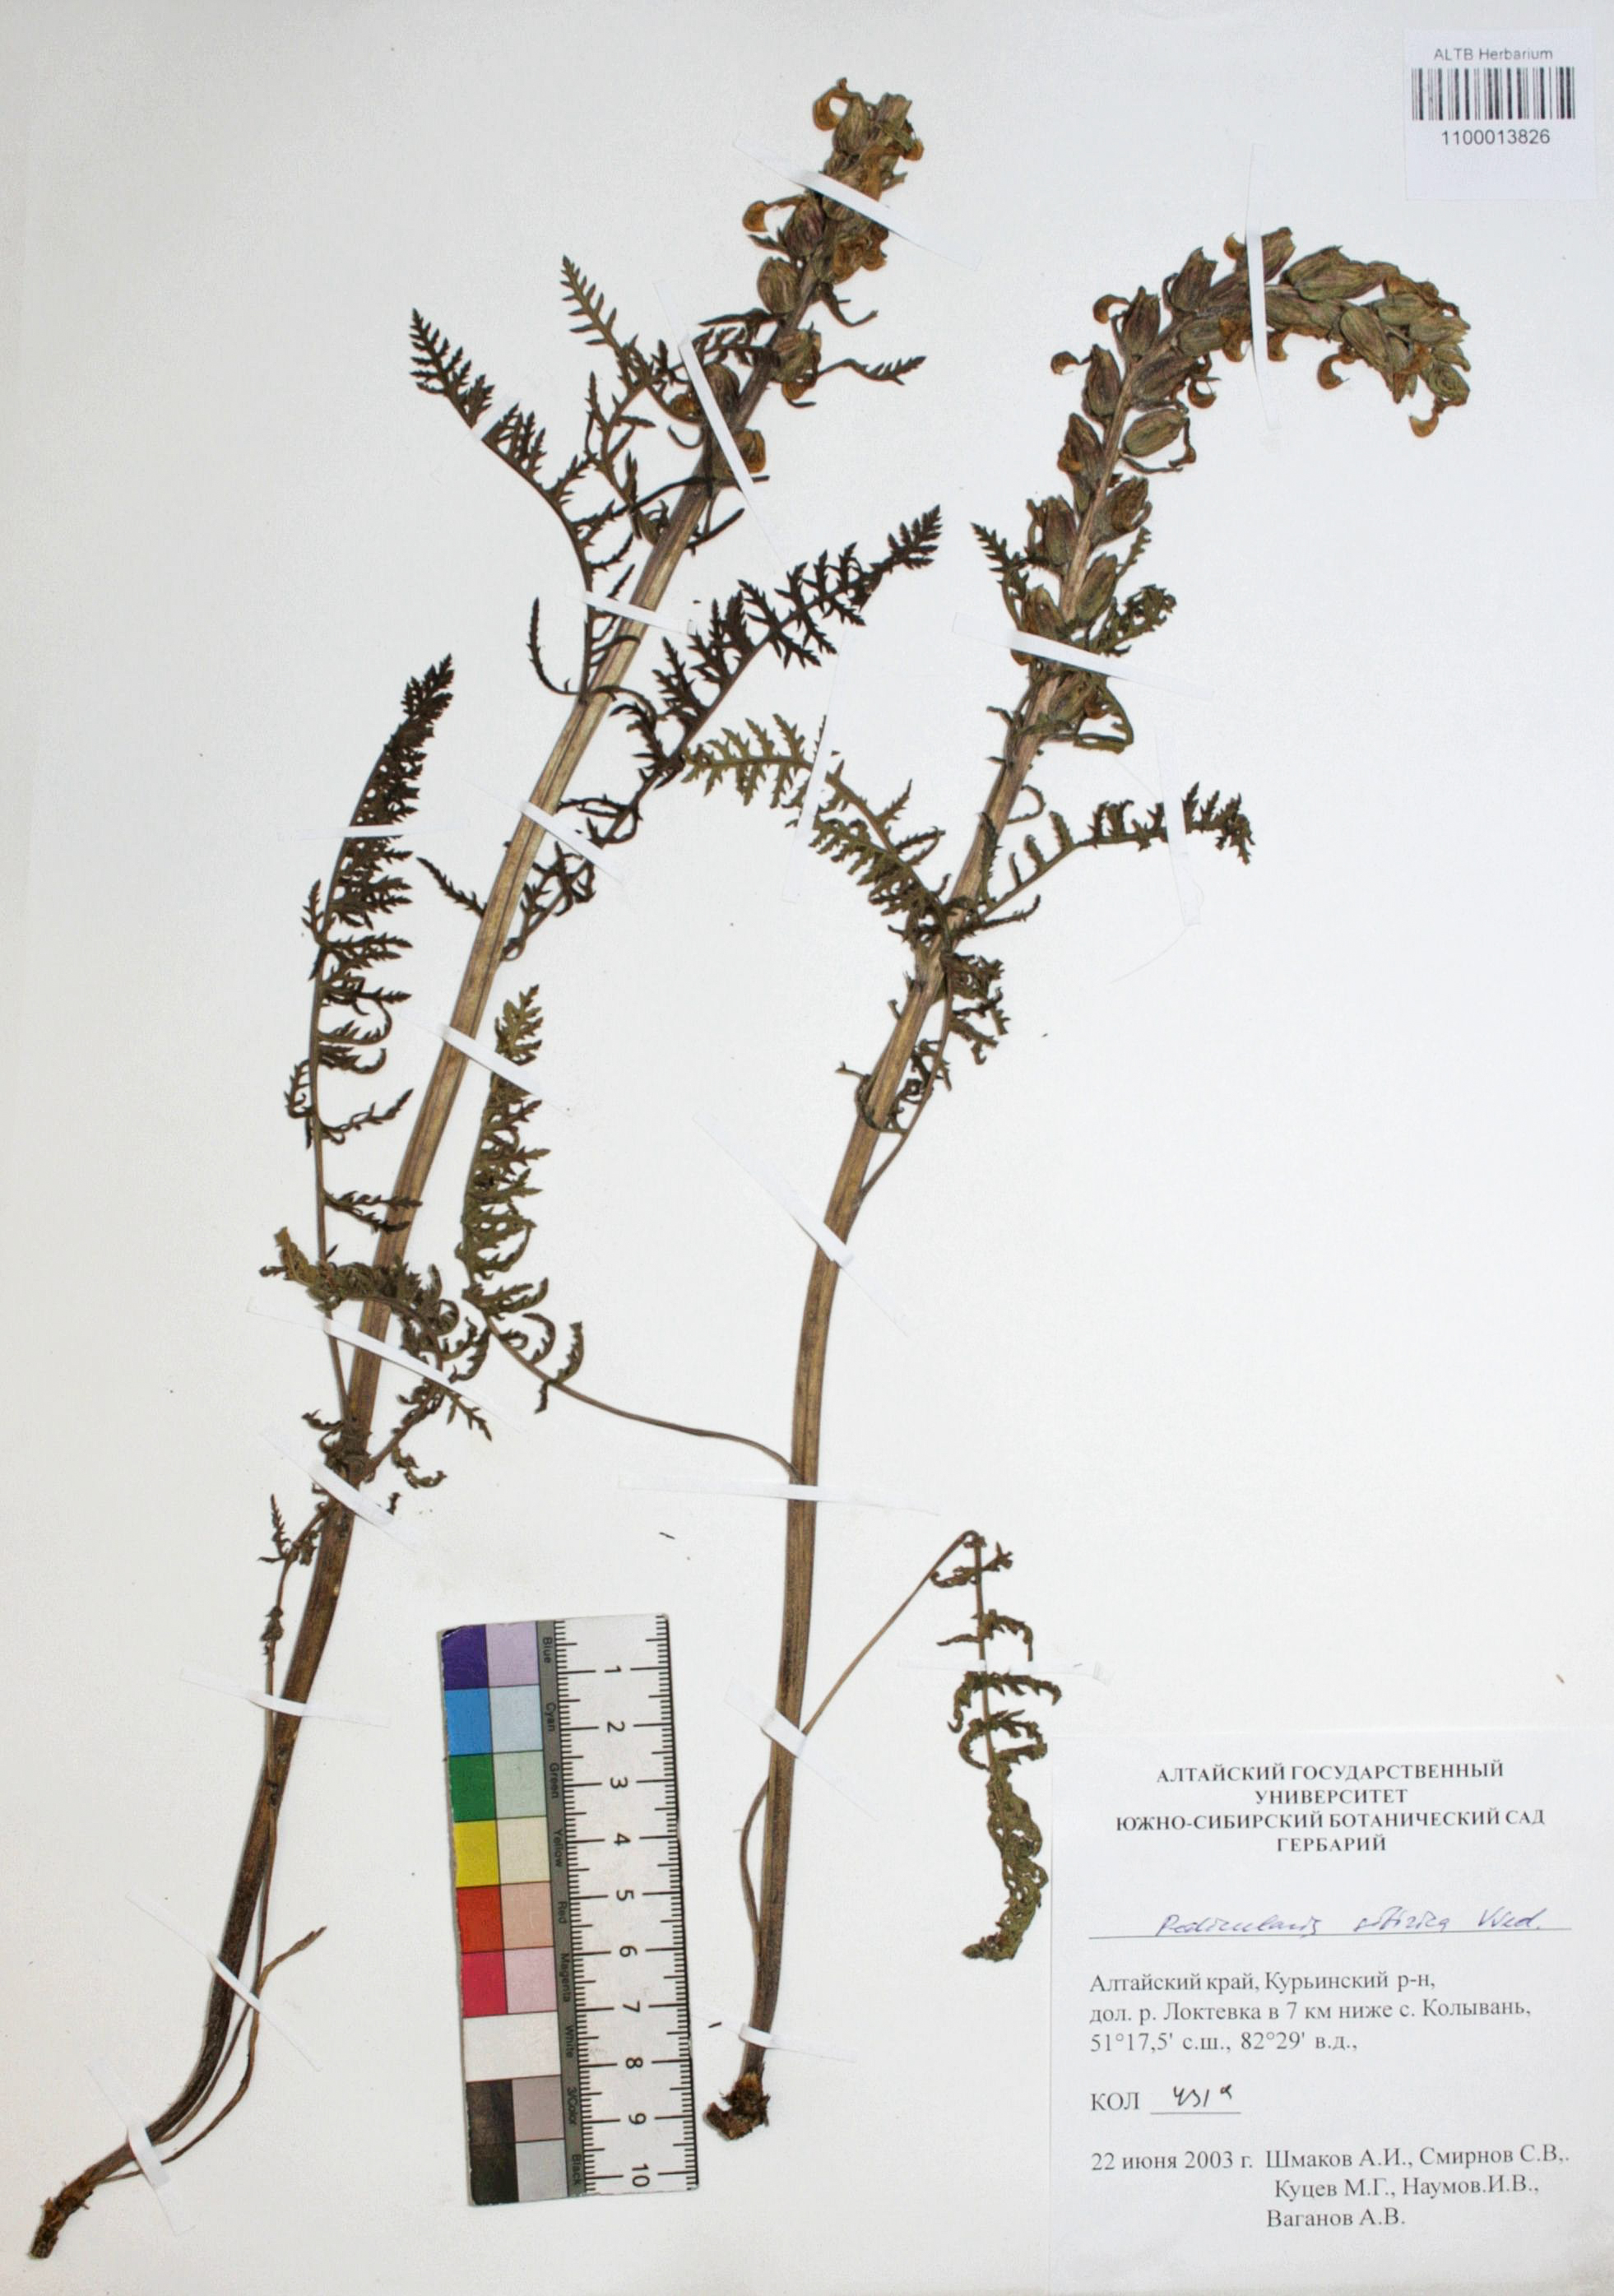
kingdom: Plantae
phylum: Tracheophyta
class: Magnoliopsida
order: Lamiales
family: Orobanchaceae
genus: Pedicularis
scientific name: Pedicularis sibirica
